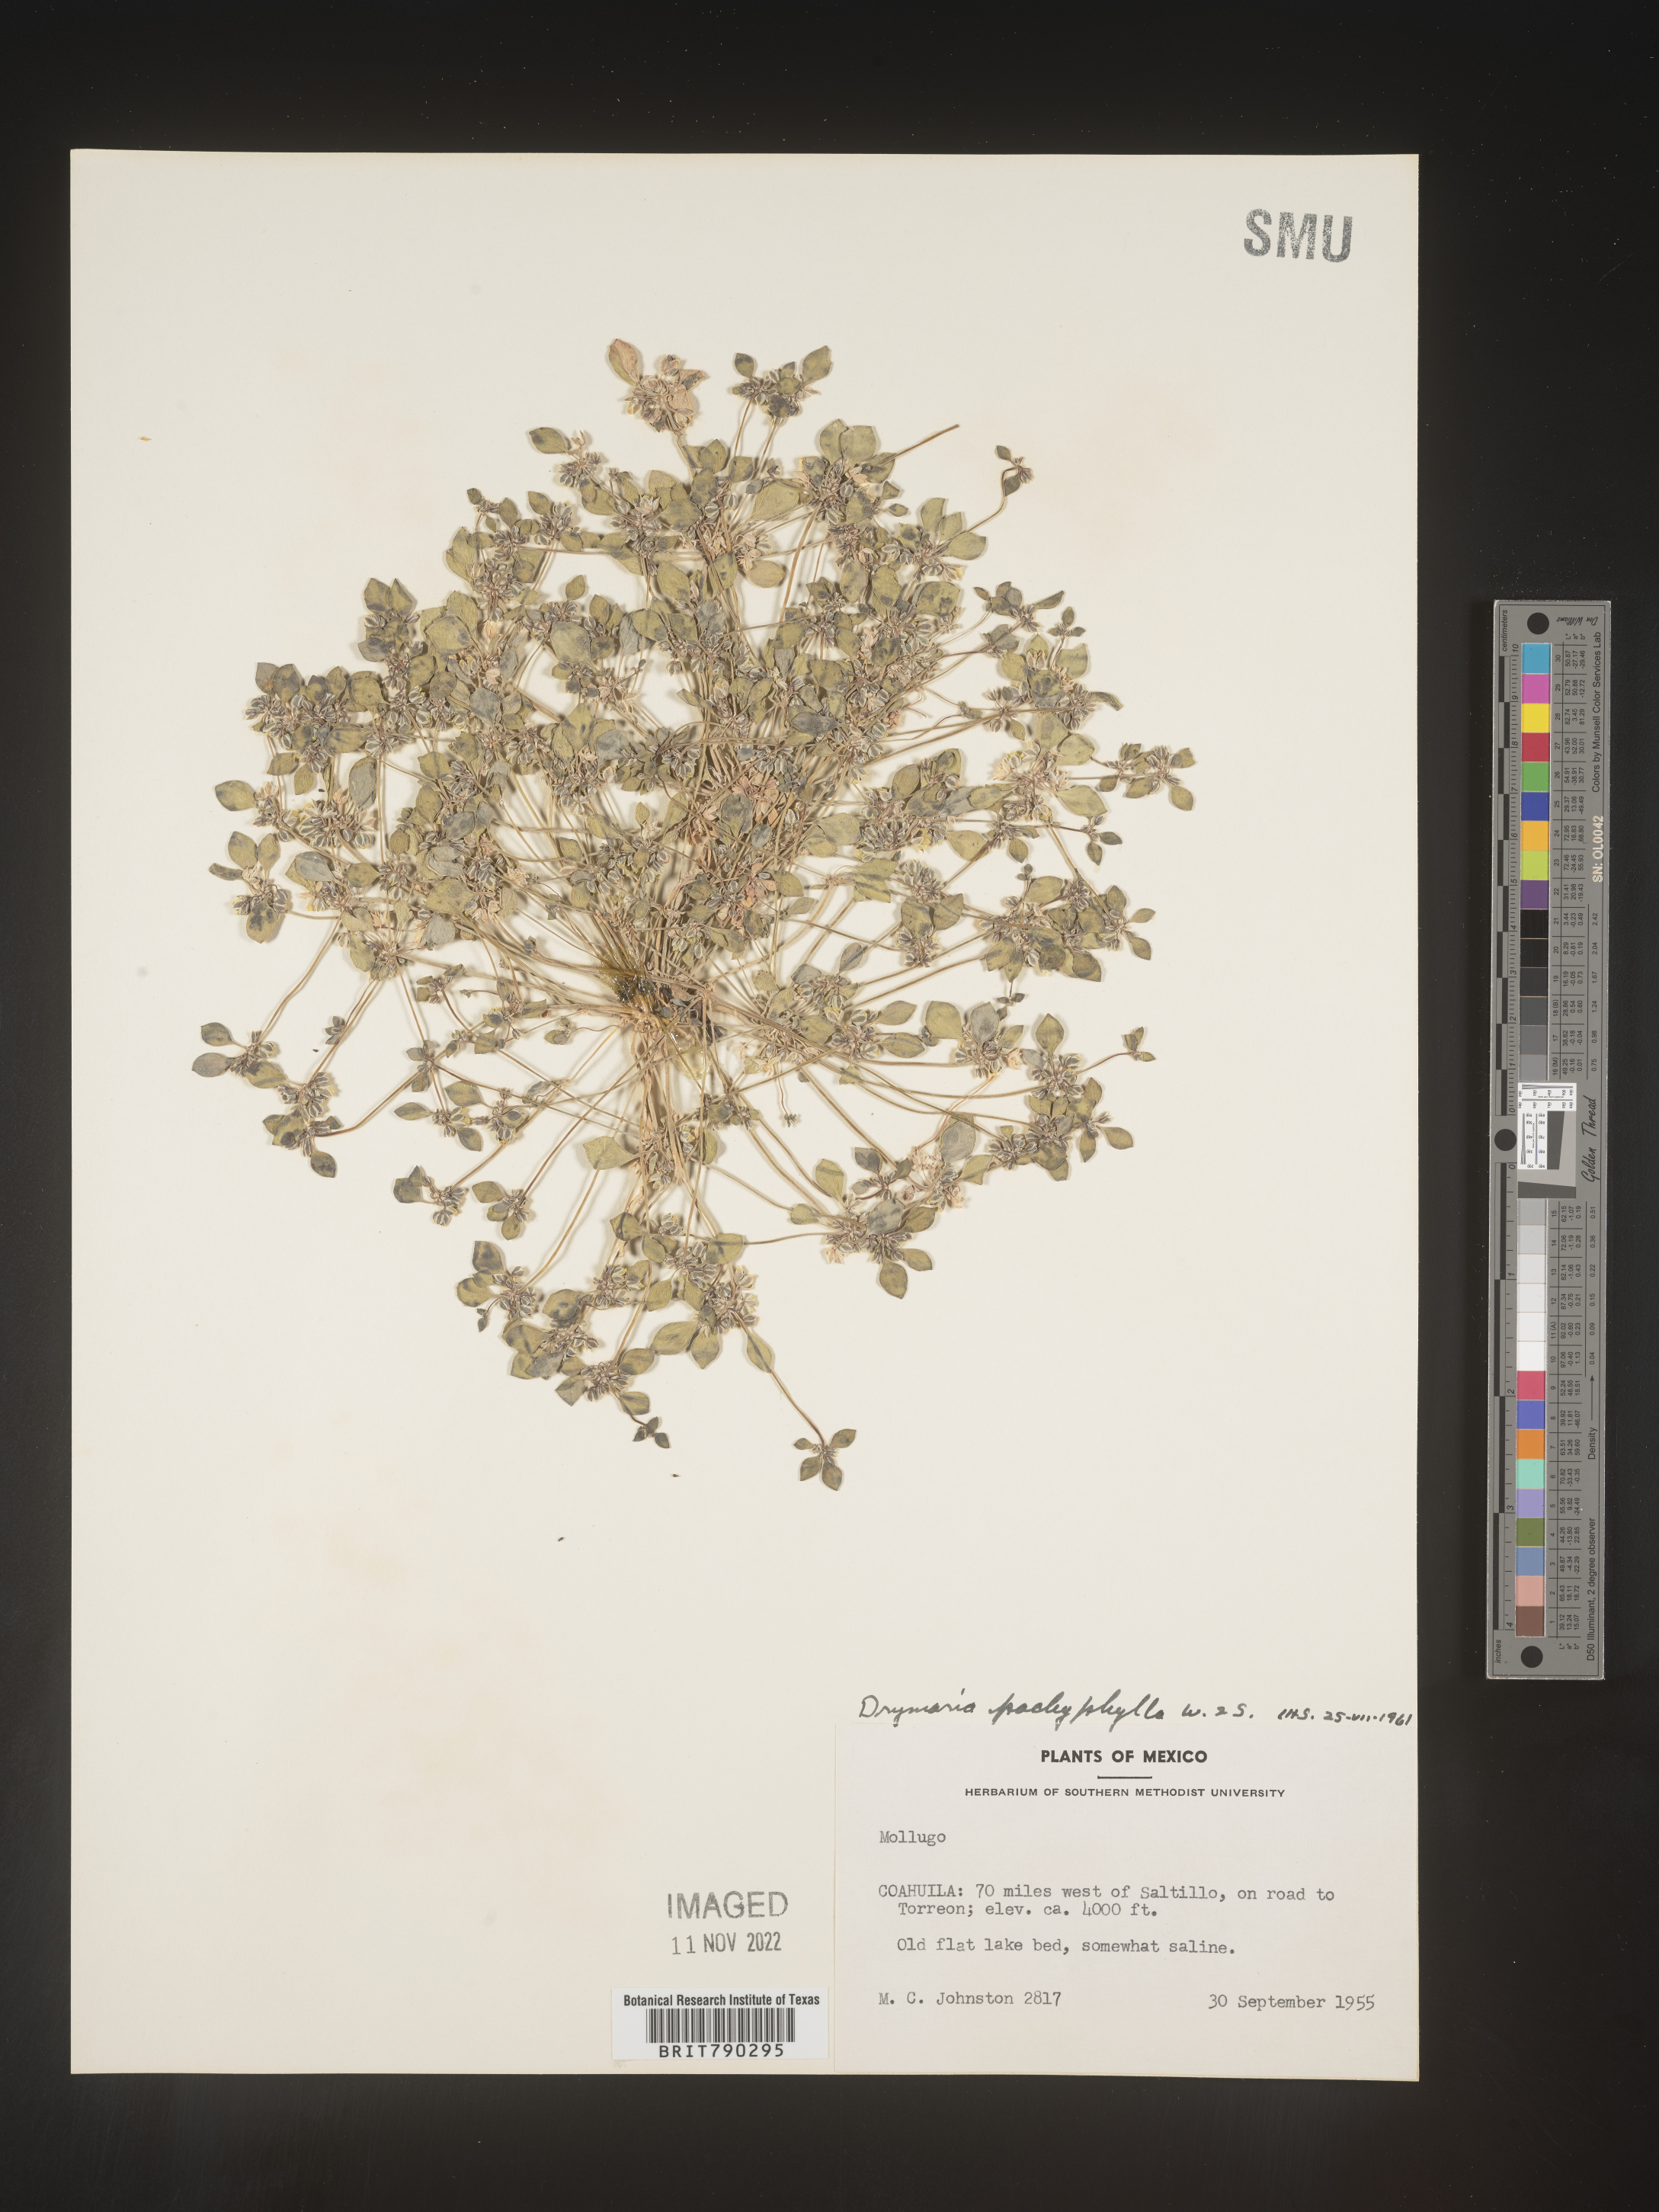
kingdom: Plantae
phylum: Tracheophyta
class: Magnoliopsida
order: Caryophyllales
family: Caryophyllaceae
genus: Drymaria
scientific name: Drymaria
